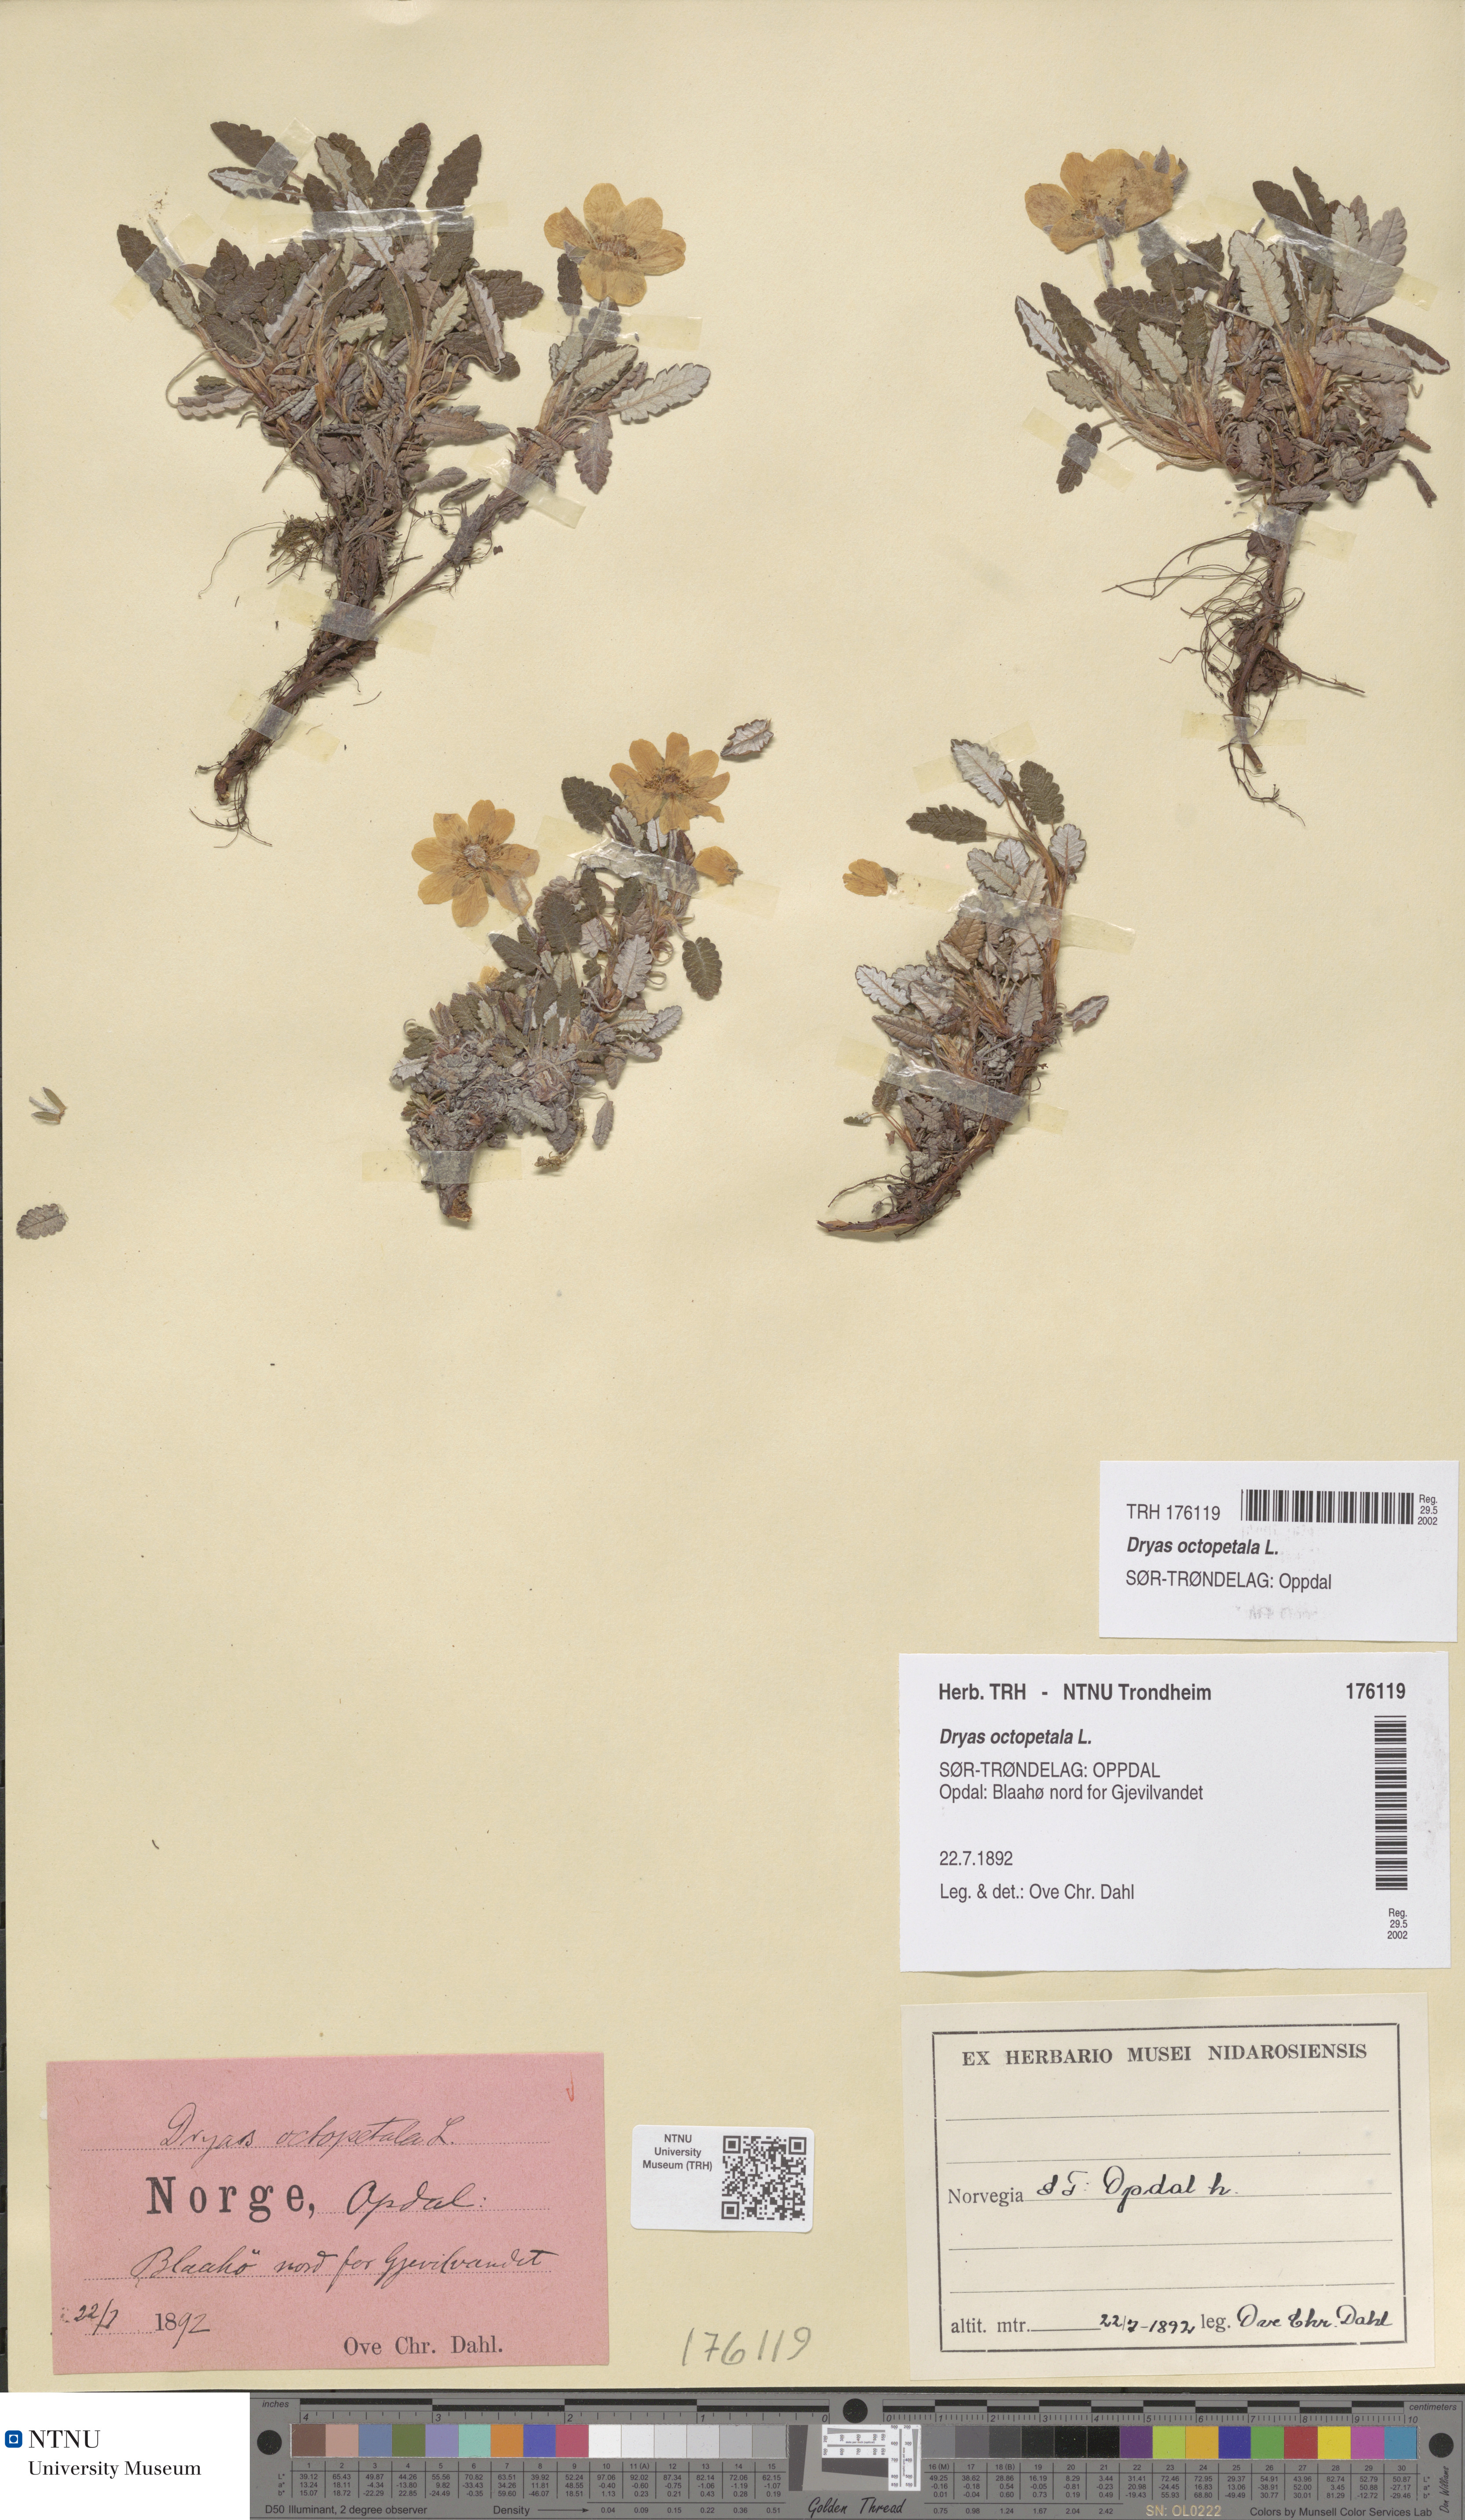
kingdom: Plantae
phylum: Tracheophyta
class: Magnoliopsida
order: Rosales
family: Rosaceae
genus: Dryas
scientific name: Dryas octopetala
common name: Eight-petal mountain-avens
